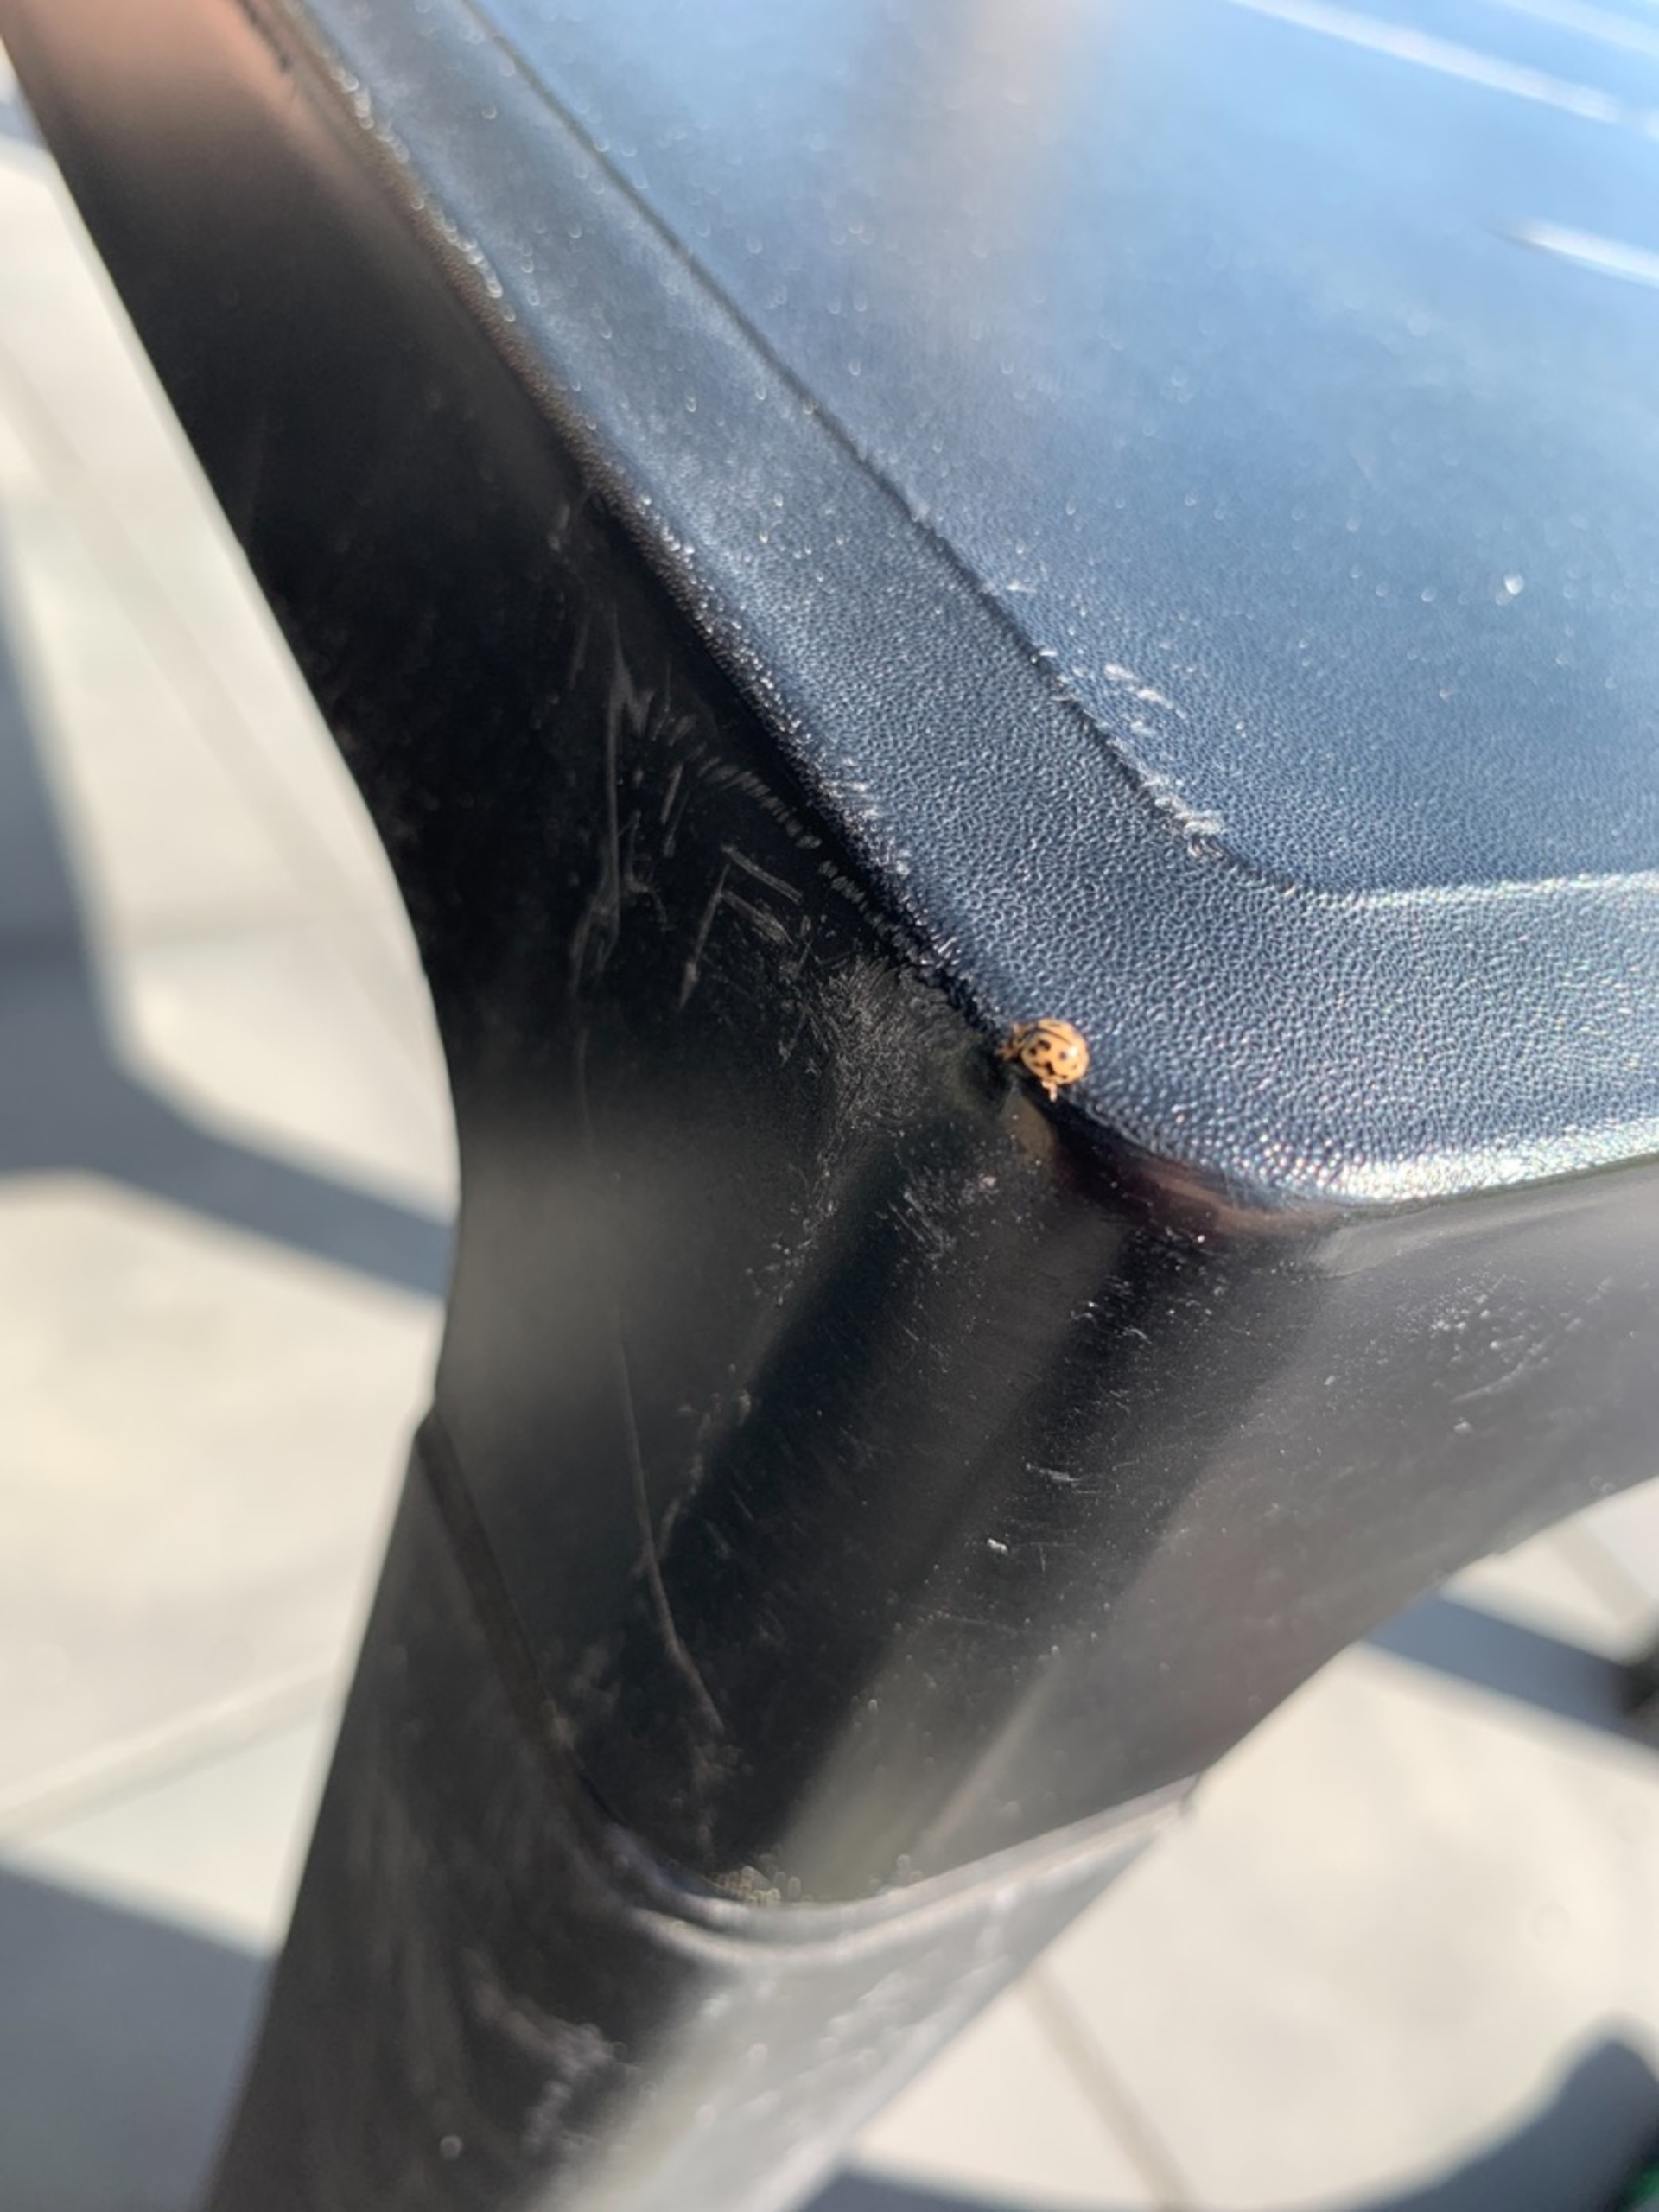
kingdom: Animalia
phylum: Arthropoda
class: Insecta
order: Coleoptera
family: Coccinellidae
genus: Tytthaspis
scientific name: Tytthaspis sedecimpunctata
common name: Sekstenprikket mariehøne
